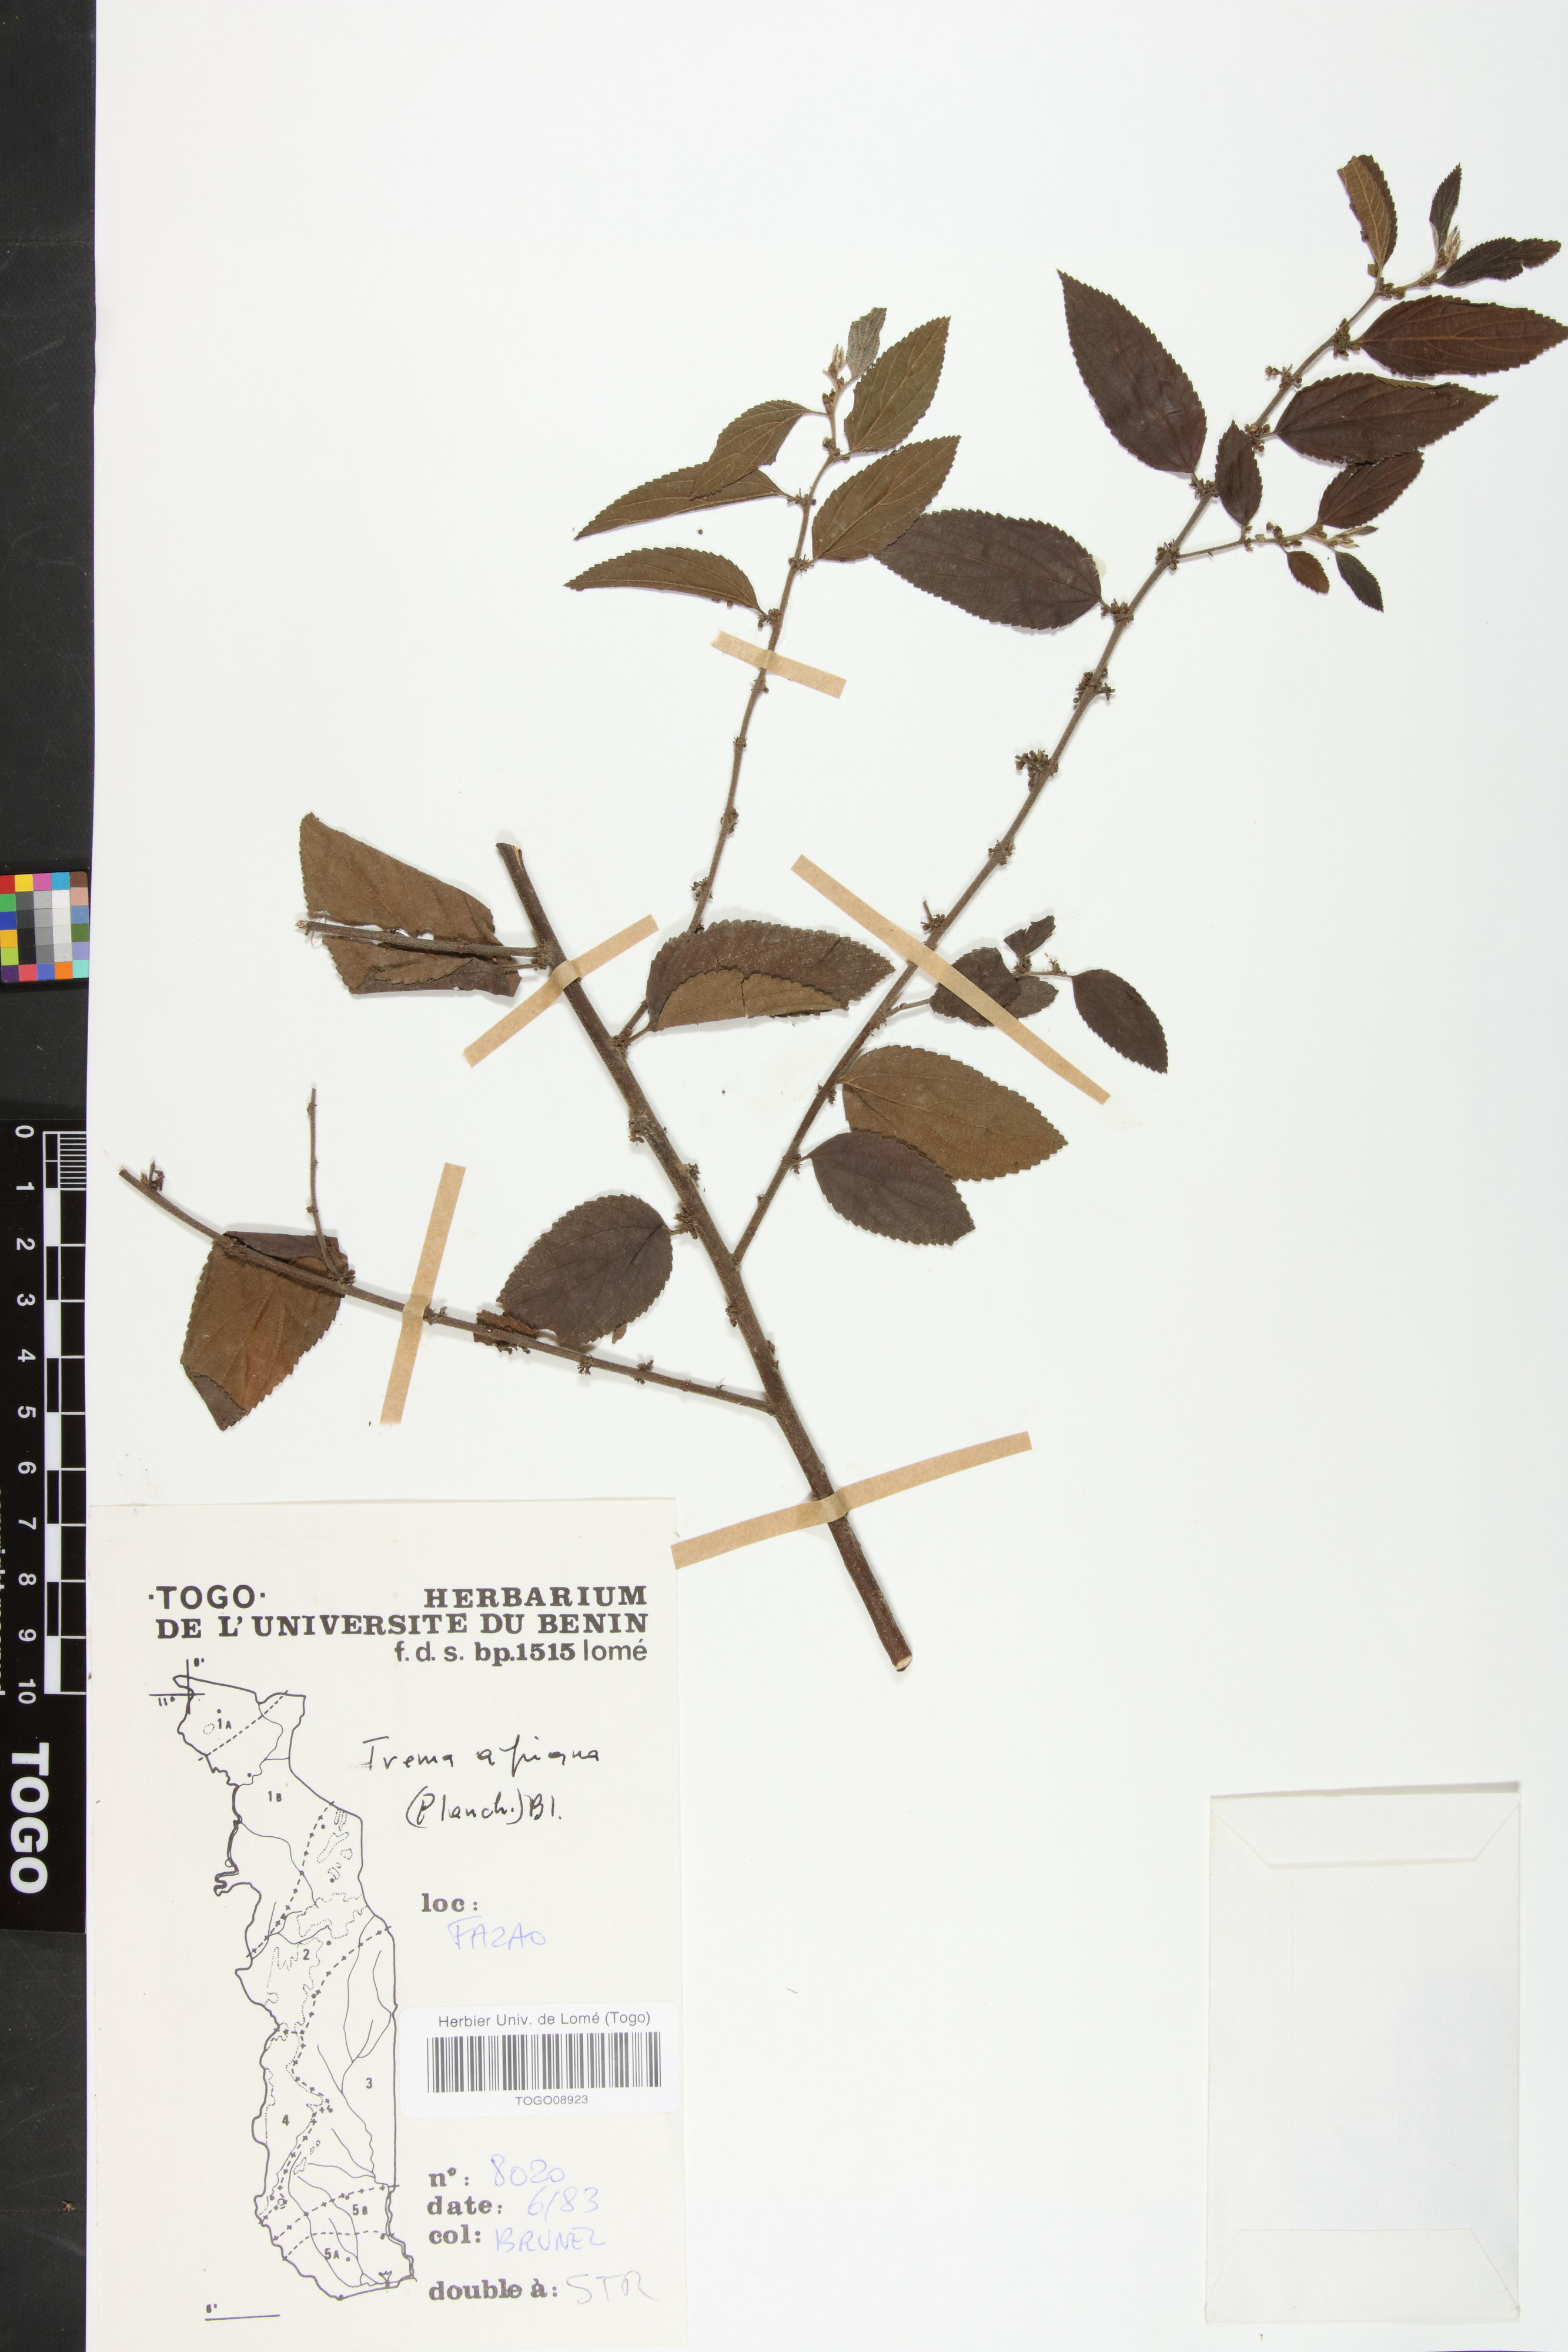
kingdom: Plantae
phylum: Tracheophyta
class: Magnoliopsida
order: Rosales
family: Cannabaceae
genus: Trema
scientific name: Trema orientale
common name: Indian charcoal tree
